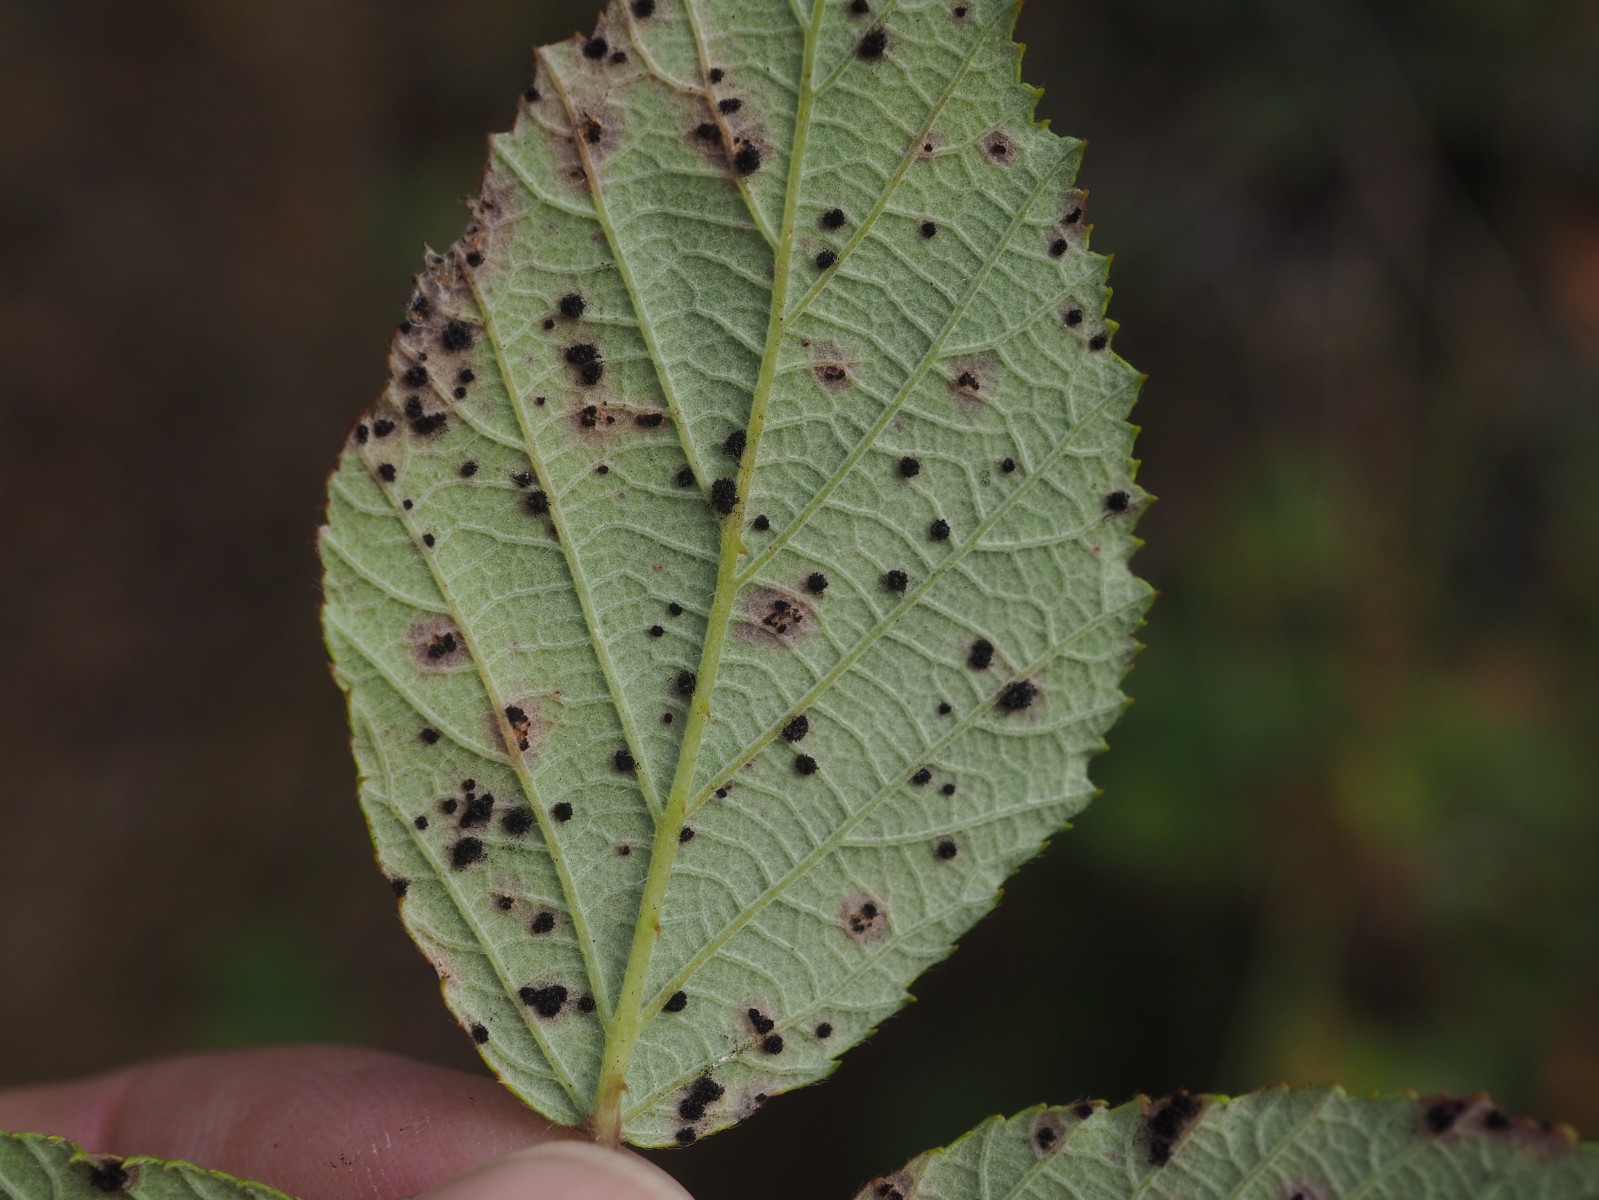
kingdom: Fungi
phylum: Basidiomycota
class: Pucciniomycetes
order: Pucciniales
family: Phragmidiaceae
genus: Phragmidium
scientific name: Phragmidium violaceum
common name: violet flercellerust
